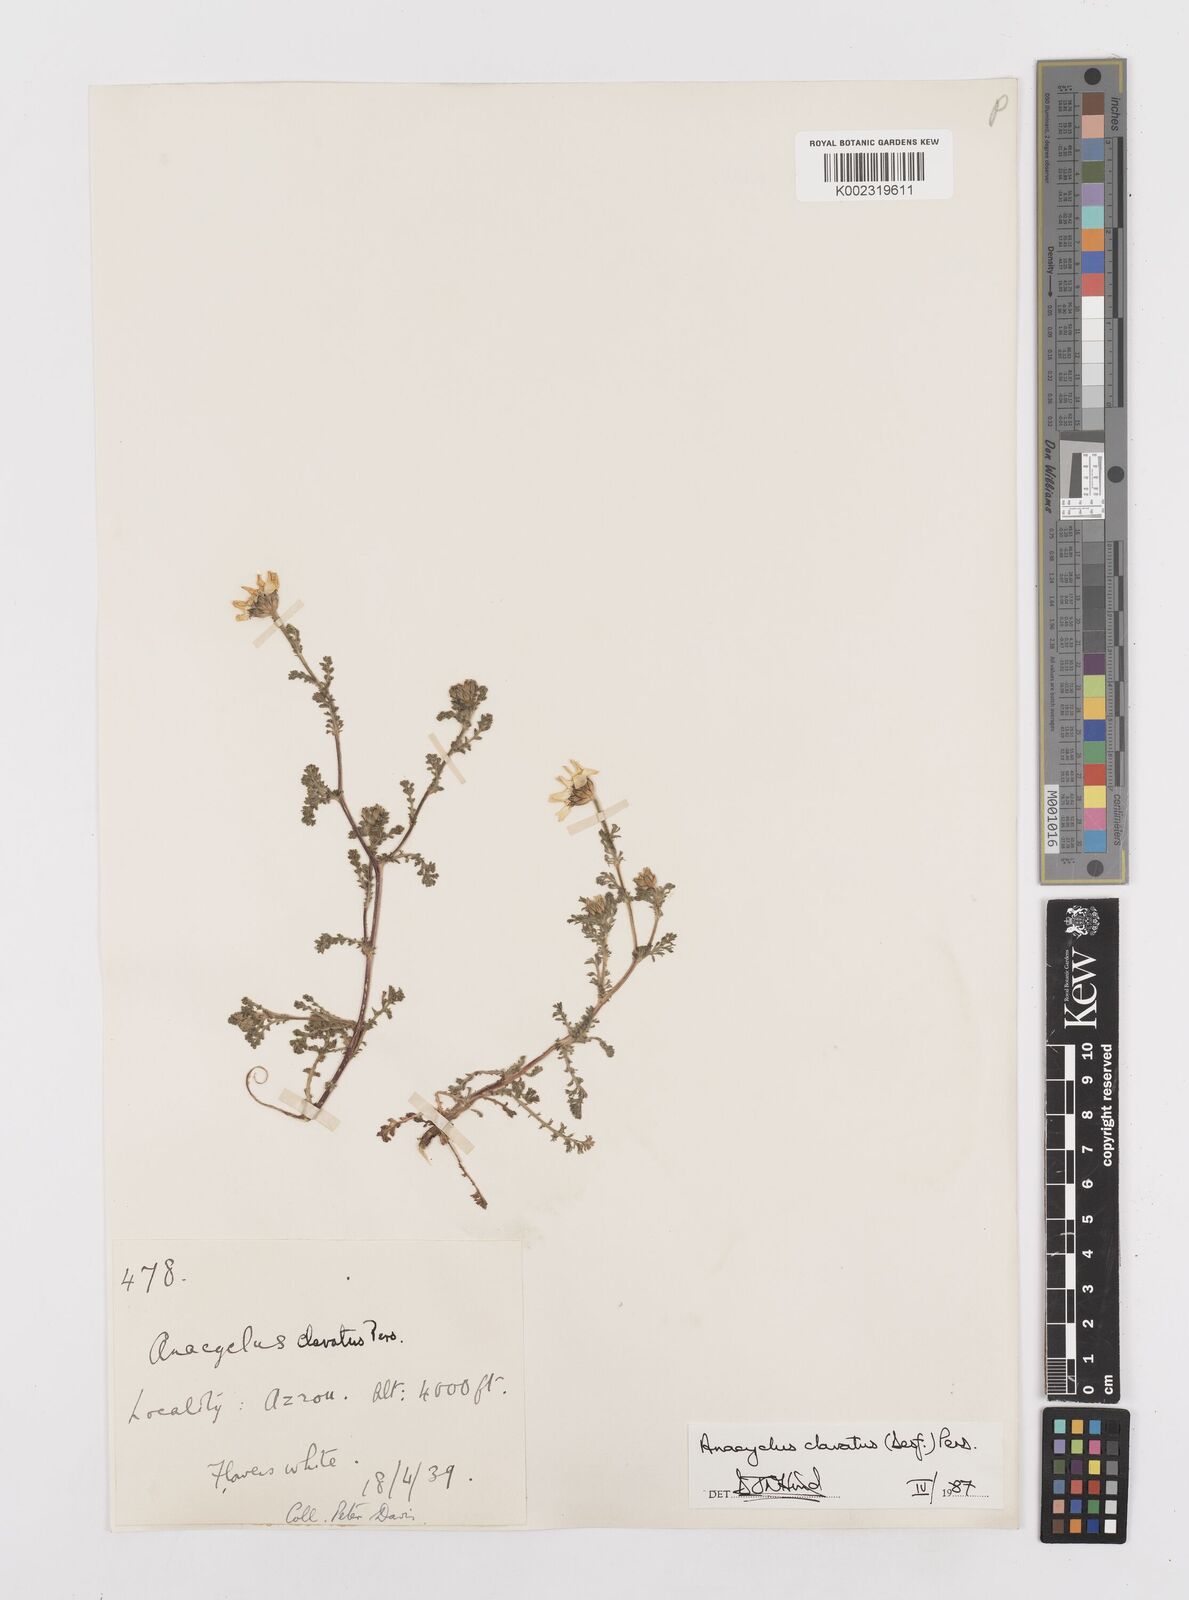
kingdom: Plantae
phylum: Tracheophyta
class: Magnoliopsida
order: Asterales
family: Asteraceae
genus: Anacyclus
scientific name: Anacyclus clavatus
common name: Whitebuttons
